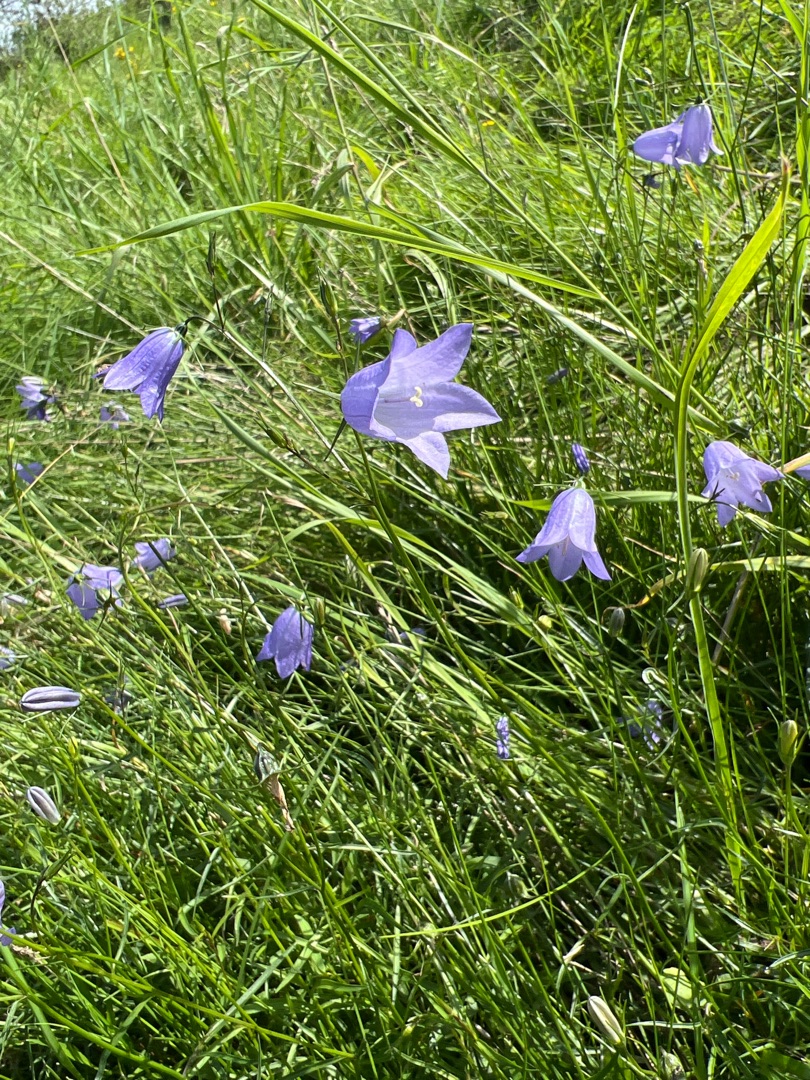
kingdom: Plantae
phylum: Tracheophyta
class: Magnoliopsida
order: Asterales
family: Campanulaceae
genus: Campanula
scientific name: Campanula rotundifolia
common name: Liden klokke
